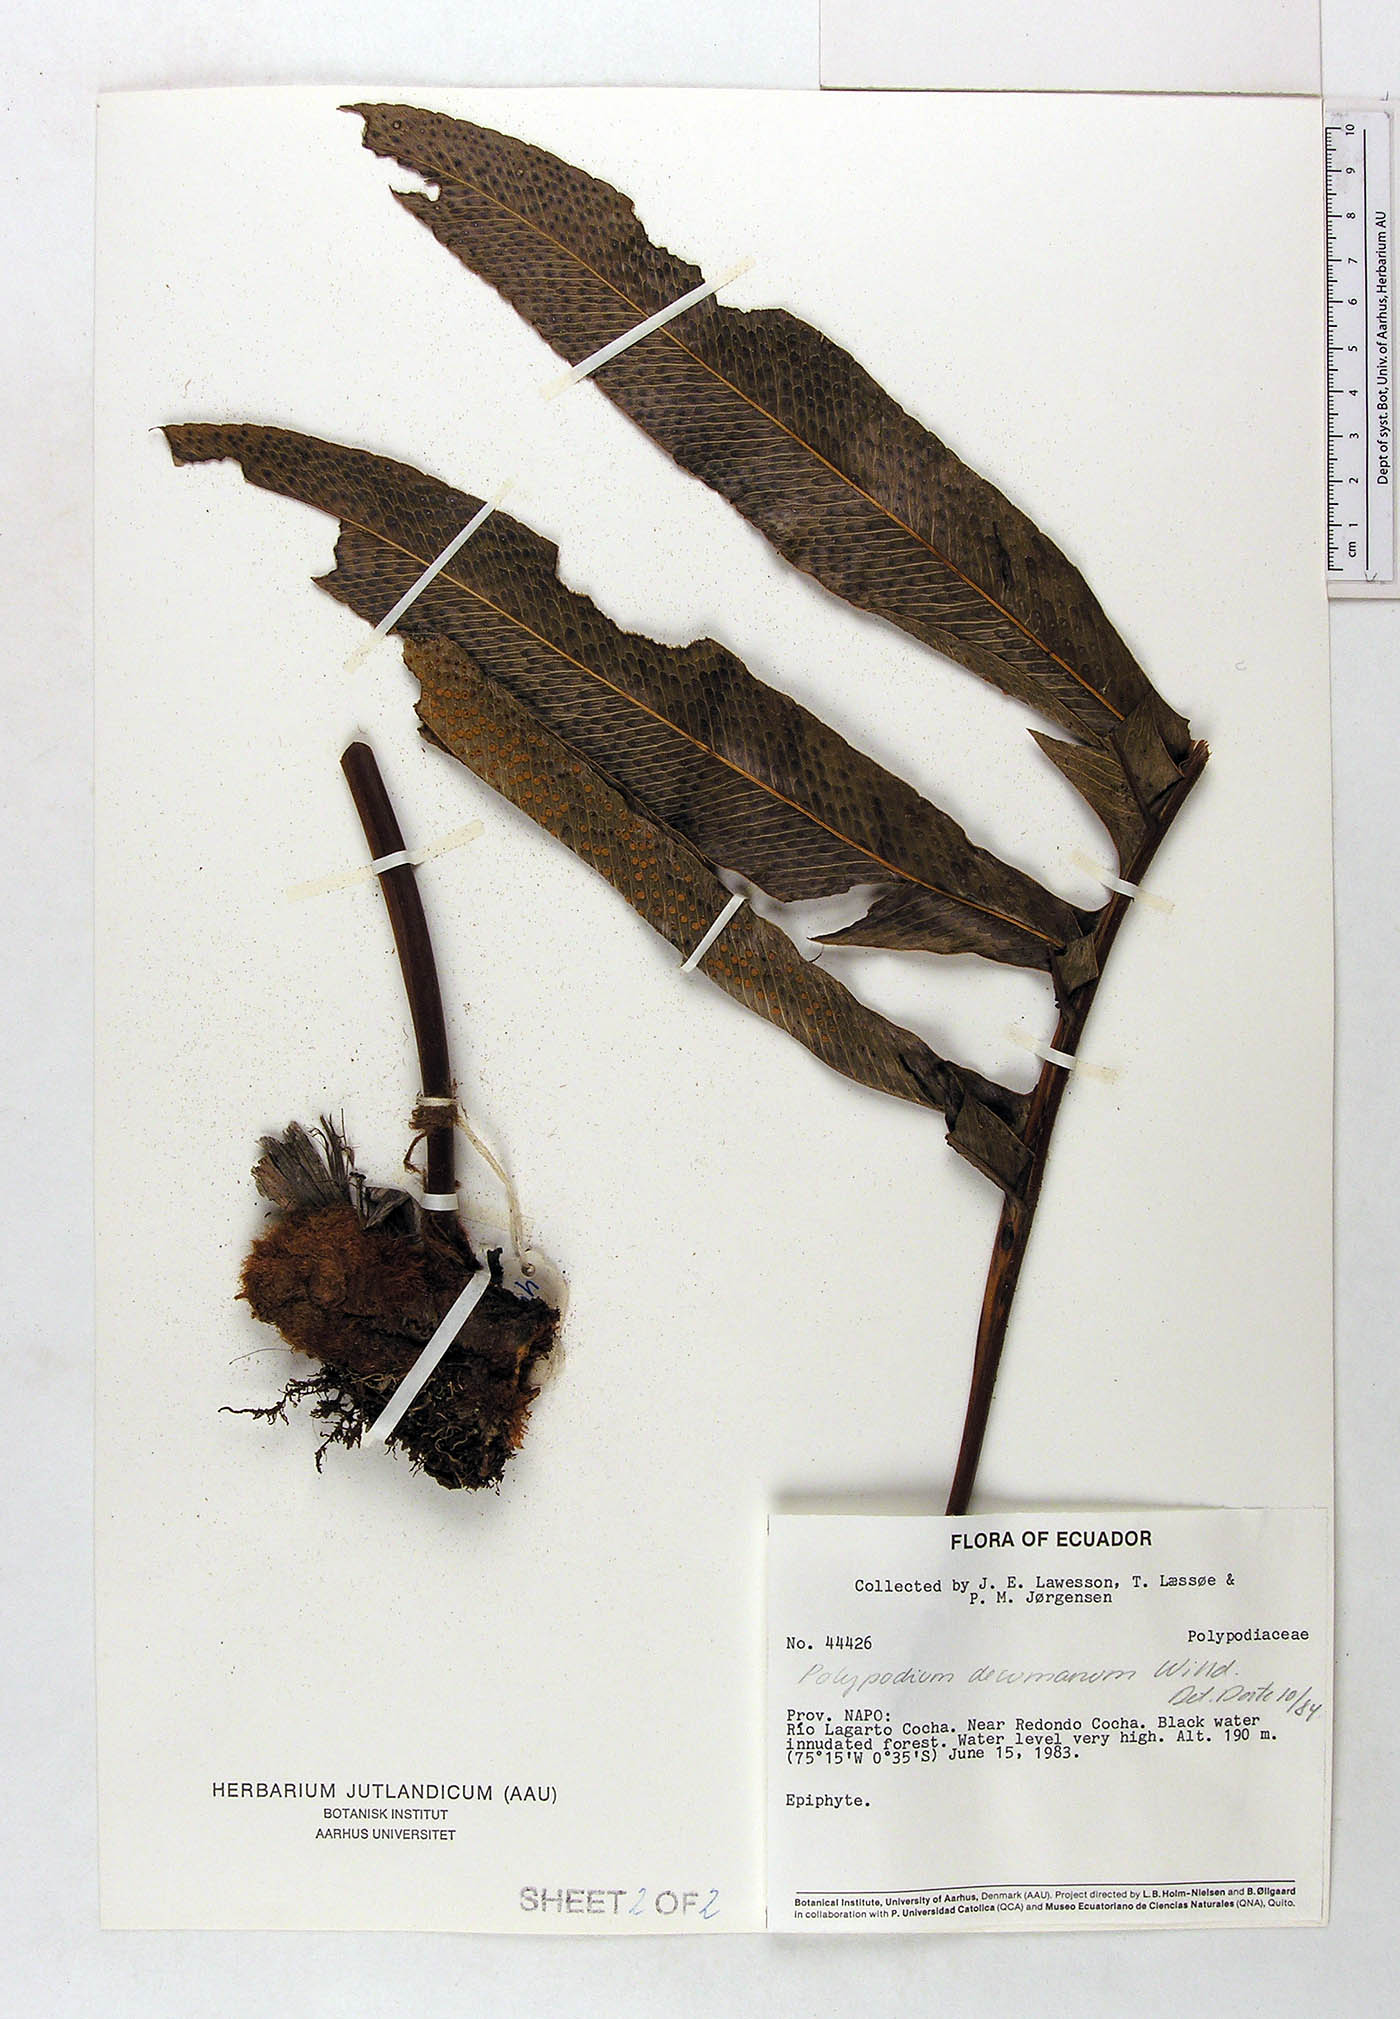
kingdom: Plantae
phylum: Tracheophyta
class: Polypodiopsida
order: Polypodiales
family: Polypodiaceae
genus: Phlebodium
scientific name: Phlebodium decumanum
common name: Golden polypod
